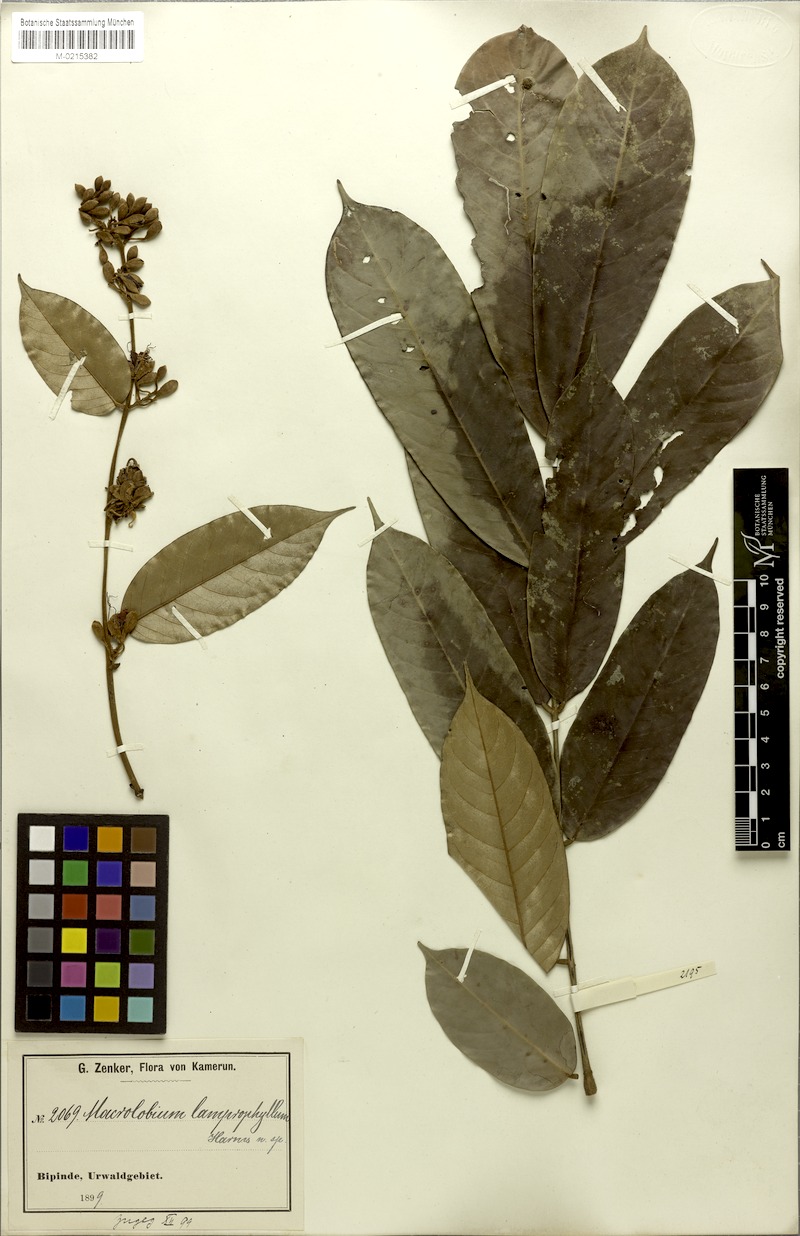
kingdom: Plantae
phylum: Tracheophyta
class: Magnoliopsida
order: Fabales
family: Fabaceae
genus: Anthonotha
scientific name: Anthonotha lamprophylla
